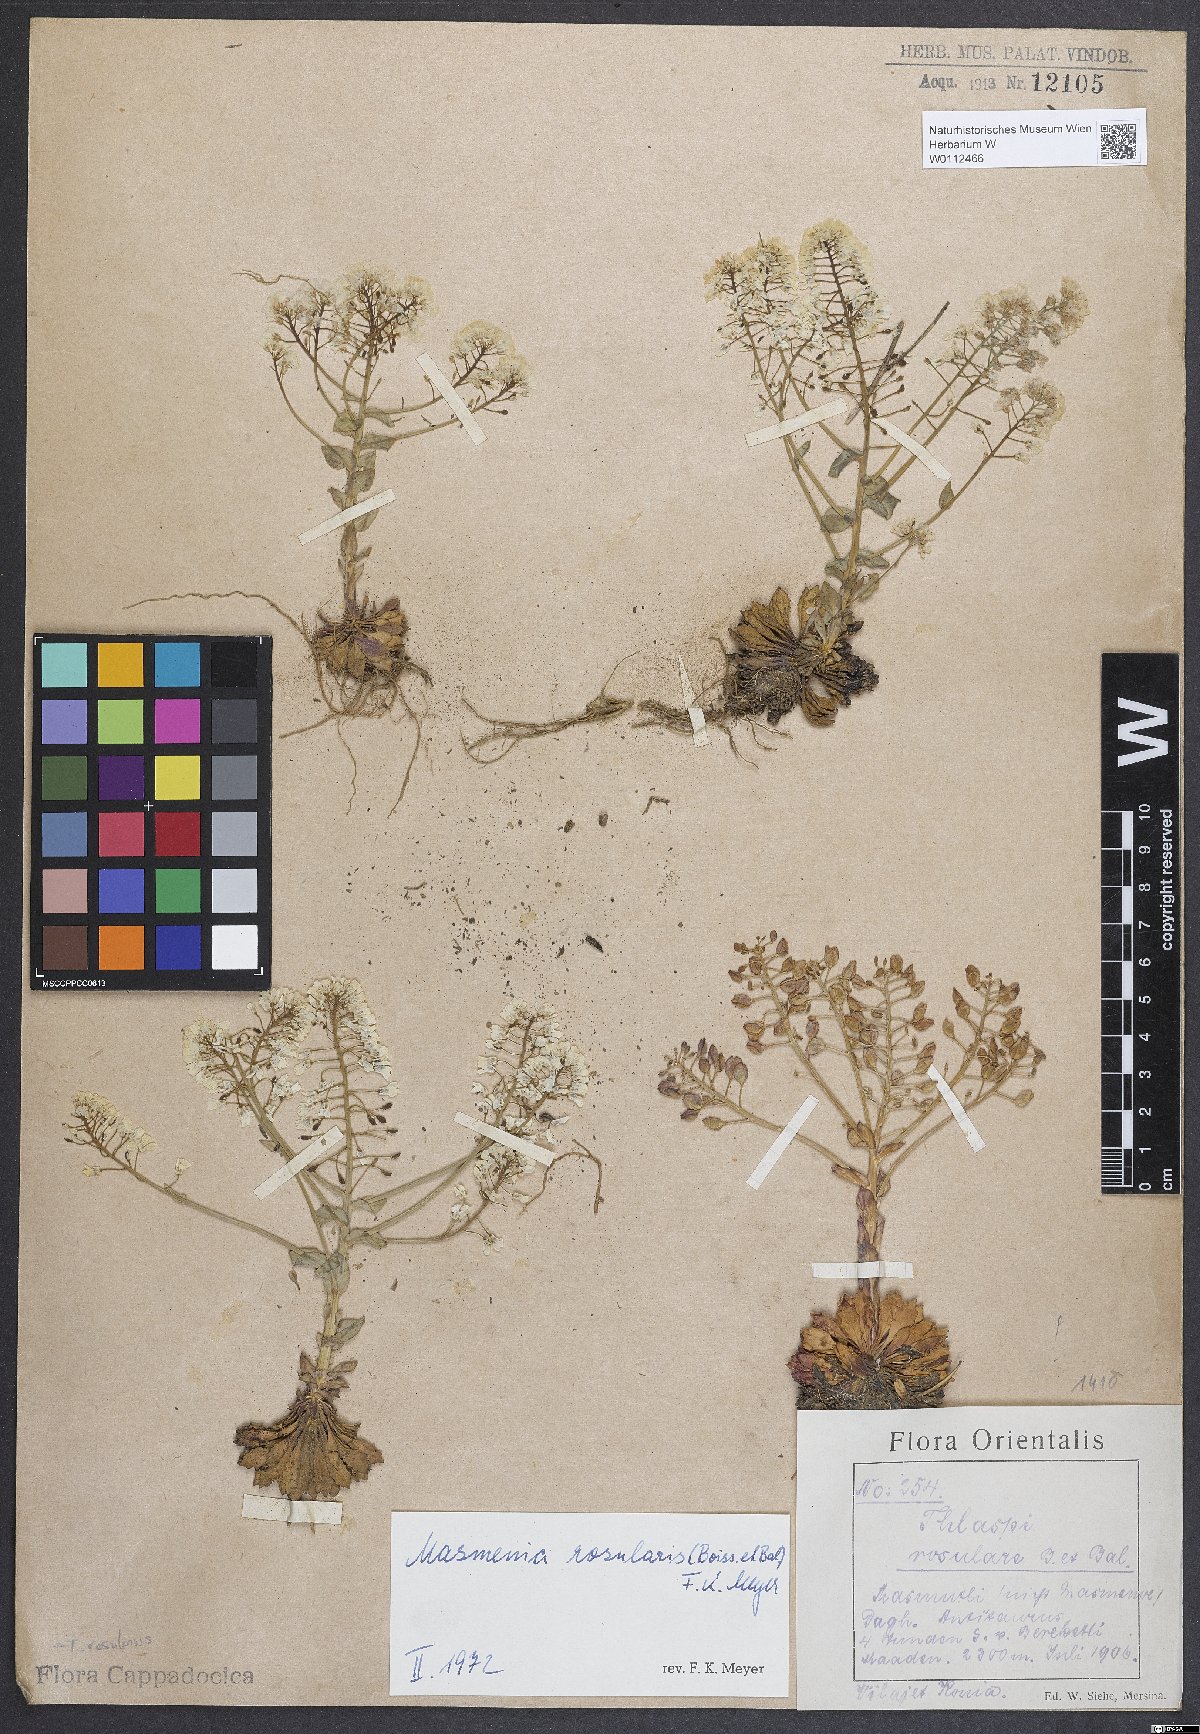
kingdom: Plantae
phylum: Tracheophyta
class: Magnoliopsida
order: Brassicales
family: Brassicaceae
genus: Noccaea
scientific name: Noccaea rosularis
